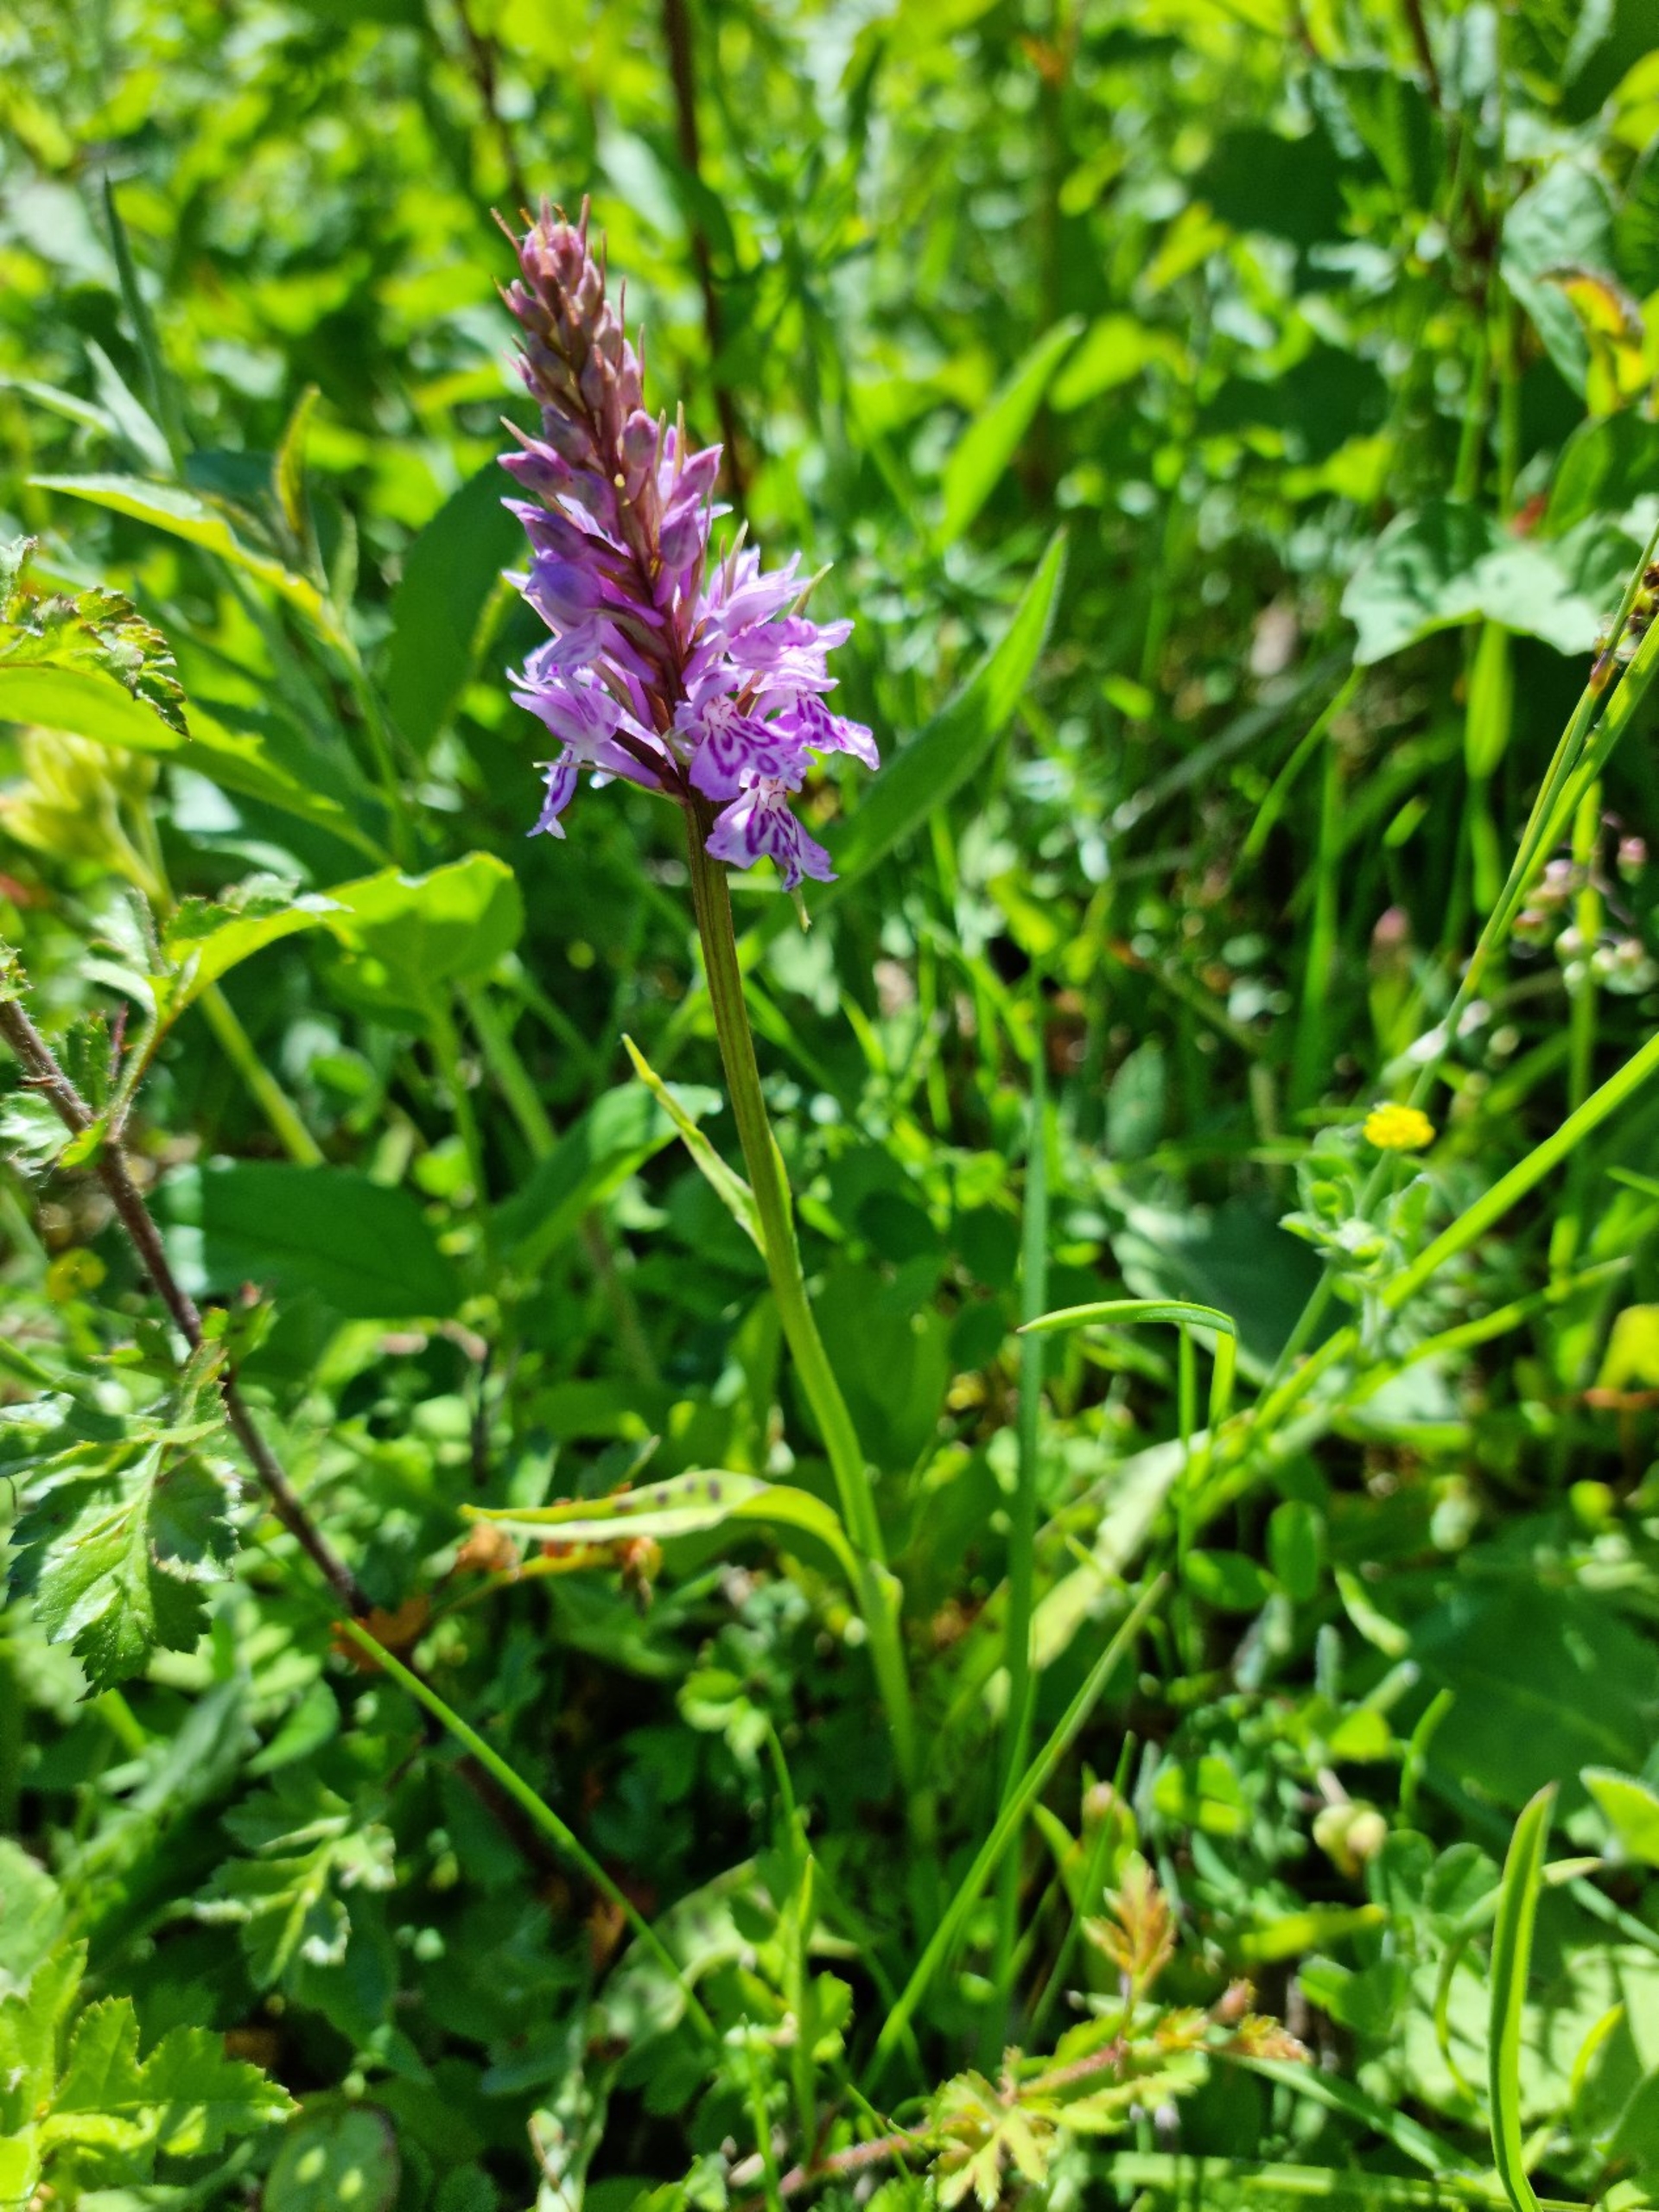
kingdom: Plantae
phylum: Tracheophyta
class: Liliopsida
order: Asparagales
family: Orchidaceae
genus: Dactylorhiza
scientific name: Dactylorhiza maculata
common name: Skov-gøgeurt
